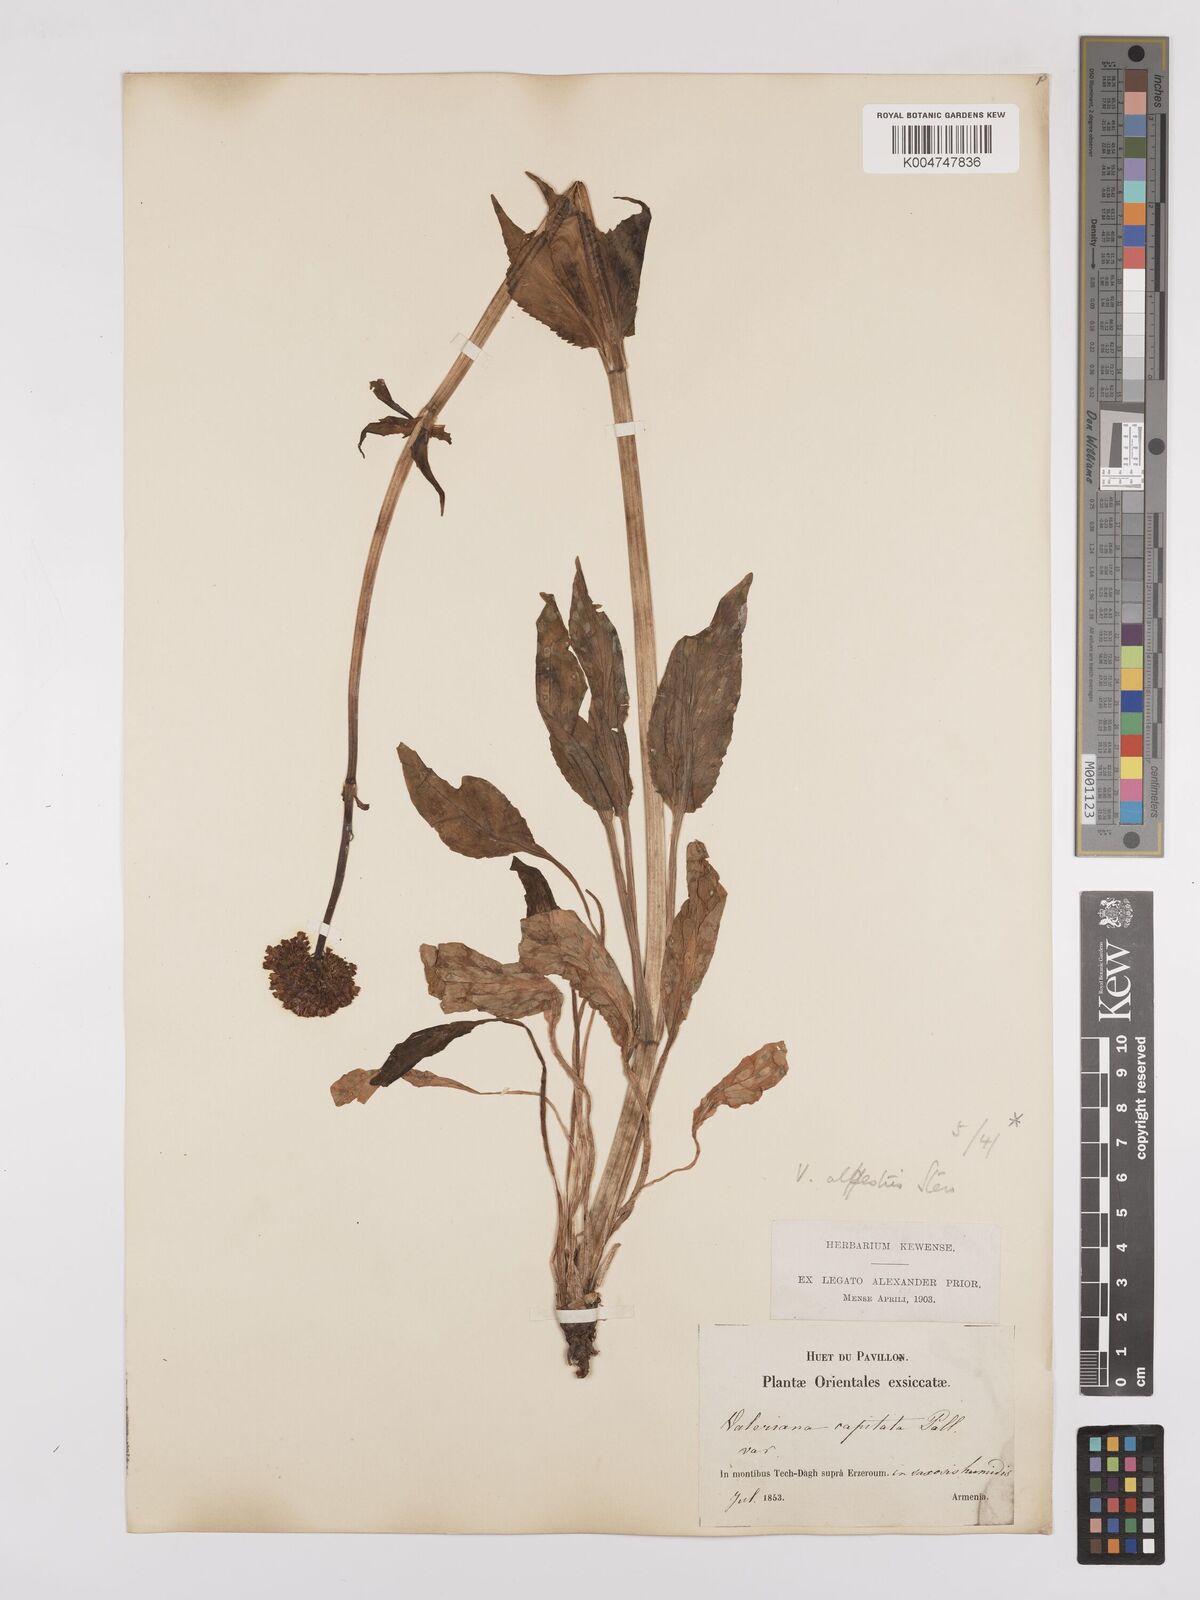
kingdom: Plantae
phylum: Tracheophyta
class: Magnoliopsida
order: Dipsacales
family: Caprifoliaceae
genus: Valeriana
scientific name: Valeriana alpestris
